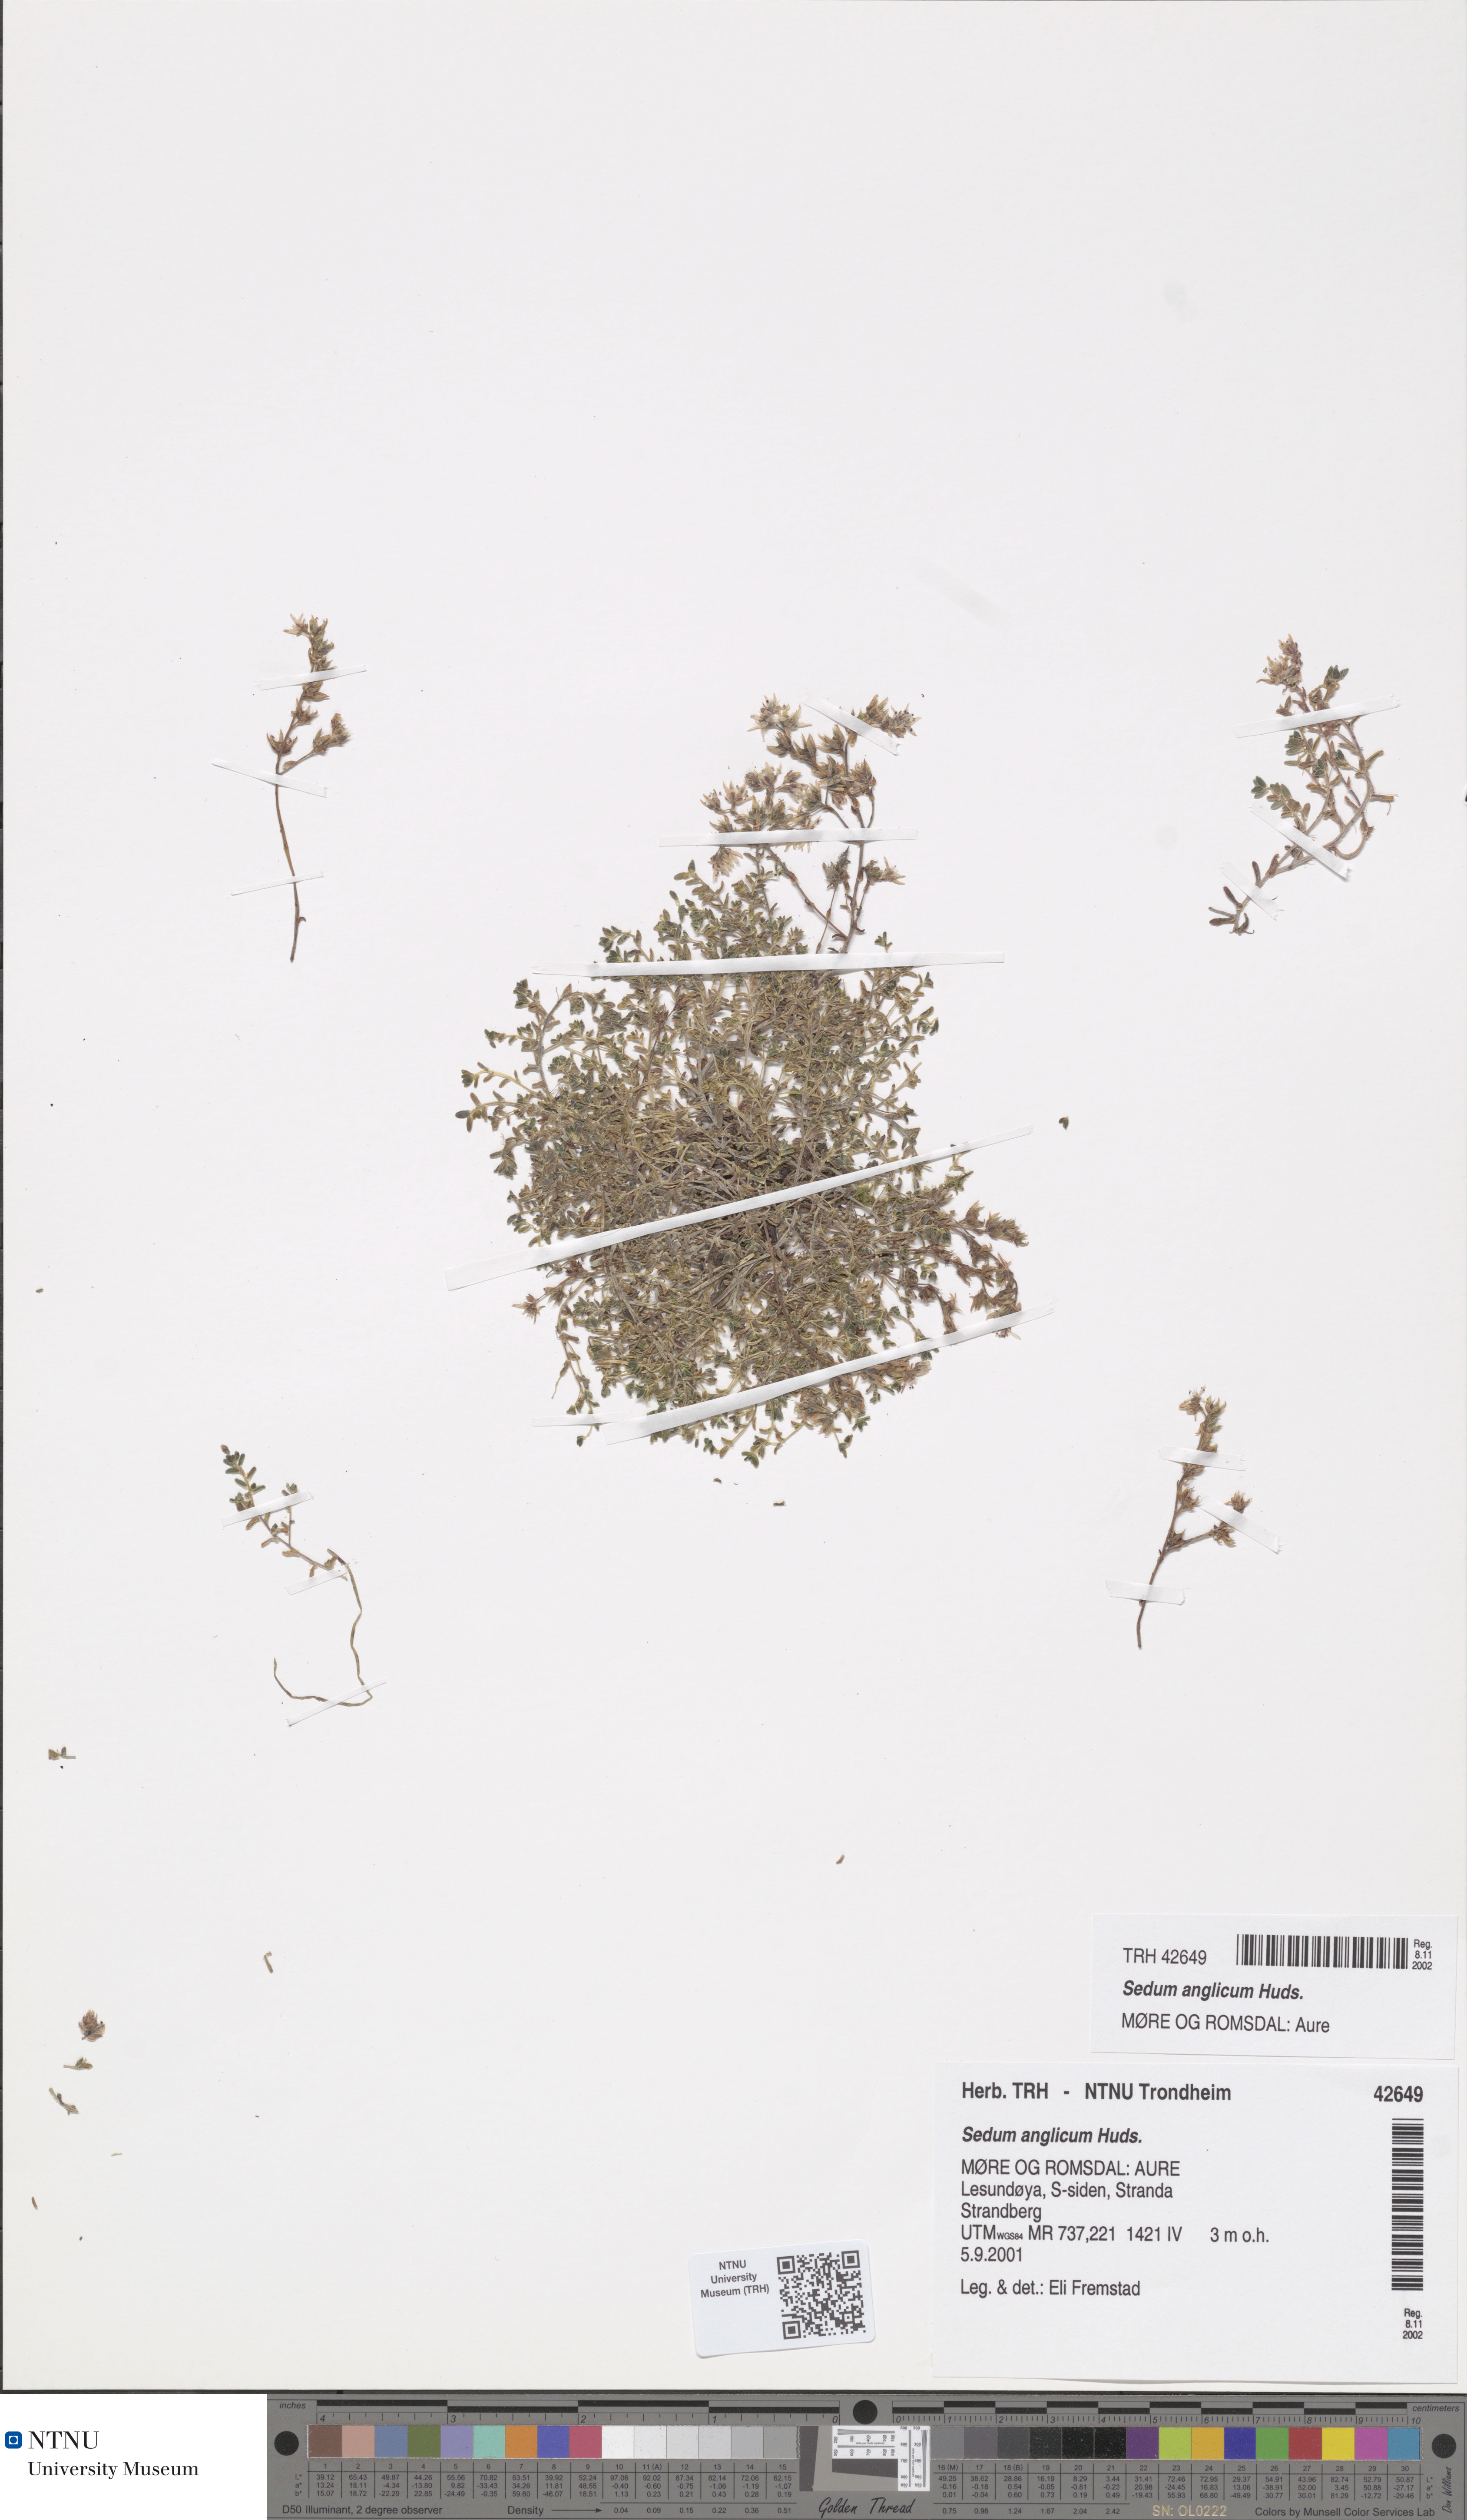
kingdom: Plantae
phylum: Tracheophyta
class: Magnoliopsida
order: Saxifragales
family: Crassulaceae
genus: Sedum
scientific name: Sedum anglicum
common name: English stonecrop
